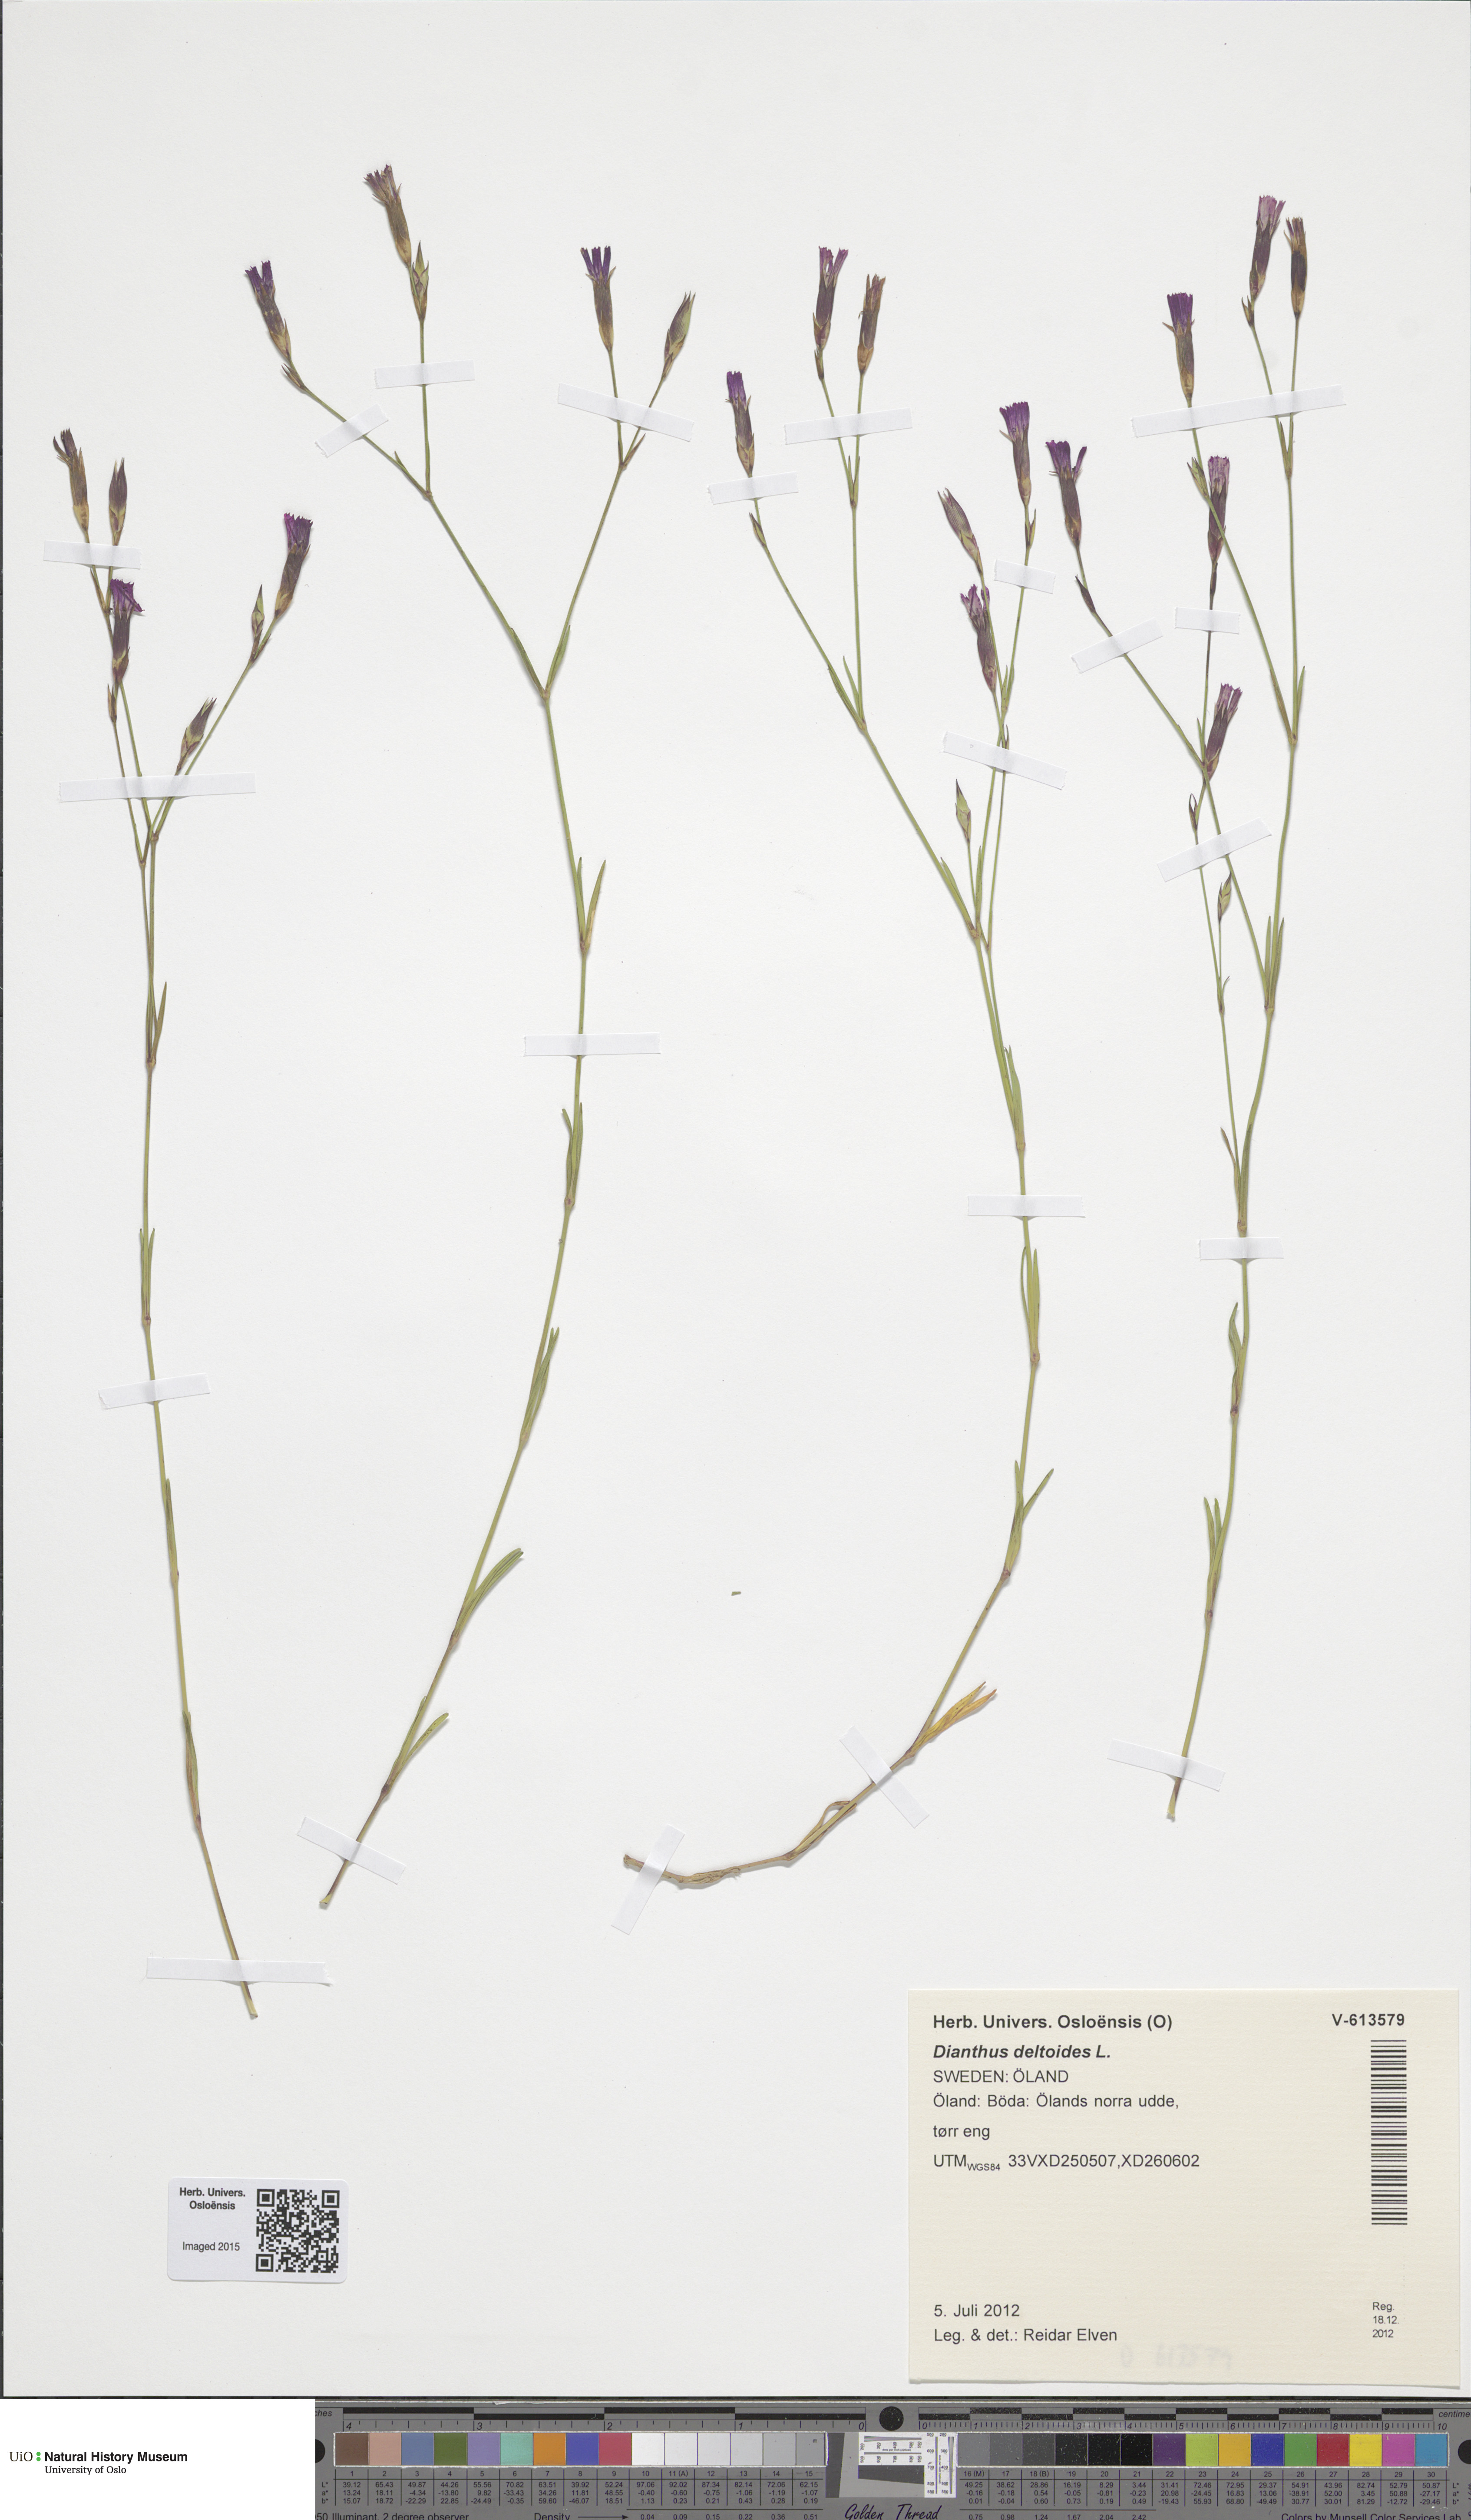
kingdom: Plantae
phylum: Tracheophyta
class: Magnoliopsida
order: Caryophyllales
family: Caryophyllaceae
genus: Dianthus
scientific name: Dianthus deltoides
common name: Maiden pink
